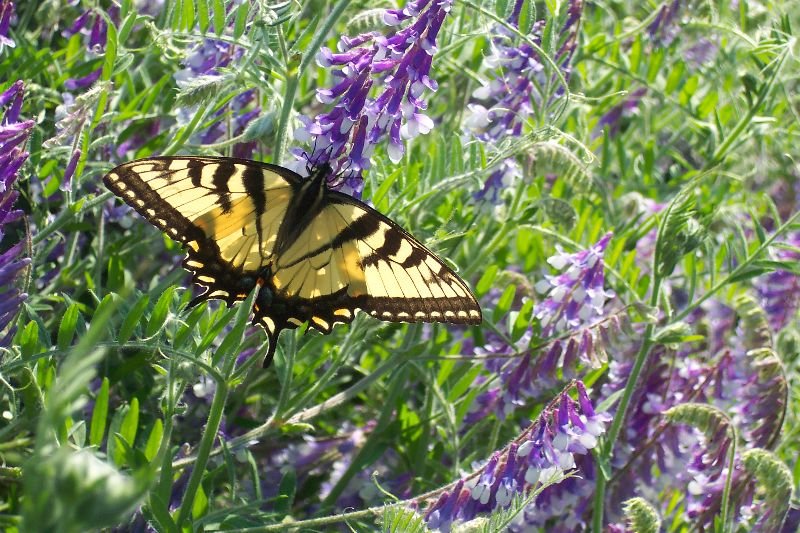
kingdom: Animalia
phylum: Arthropoda
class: Insecta
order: Lepidoptera
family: Papilionidae
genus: Pterourus
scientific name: Pterourus glaucus
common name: Eastern Tiger Swallowtail
